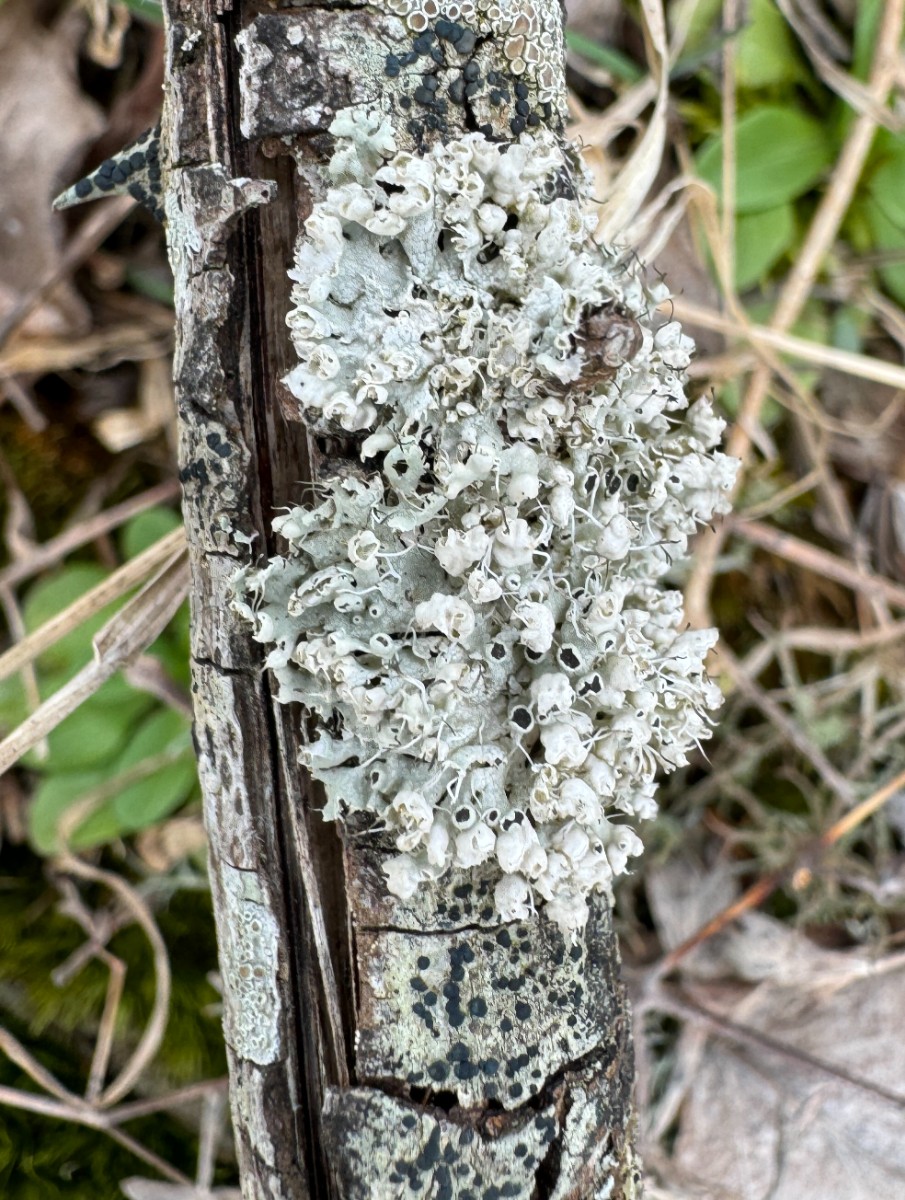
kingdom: Fungi
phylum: Ascomycota
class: Lecanoromycetes
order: Caliciales
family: Physciaceae
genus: Physcia
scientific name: Physcia adscendens
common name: hætte-rosetlav
